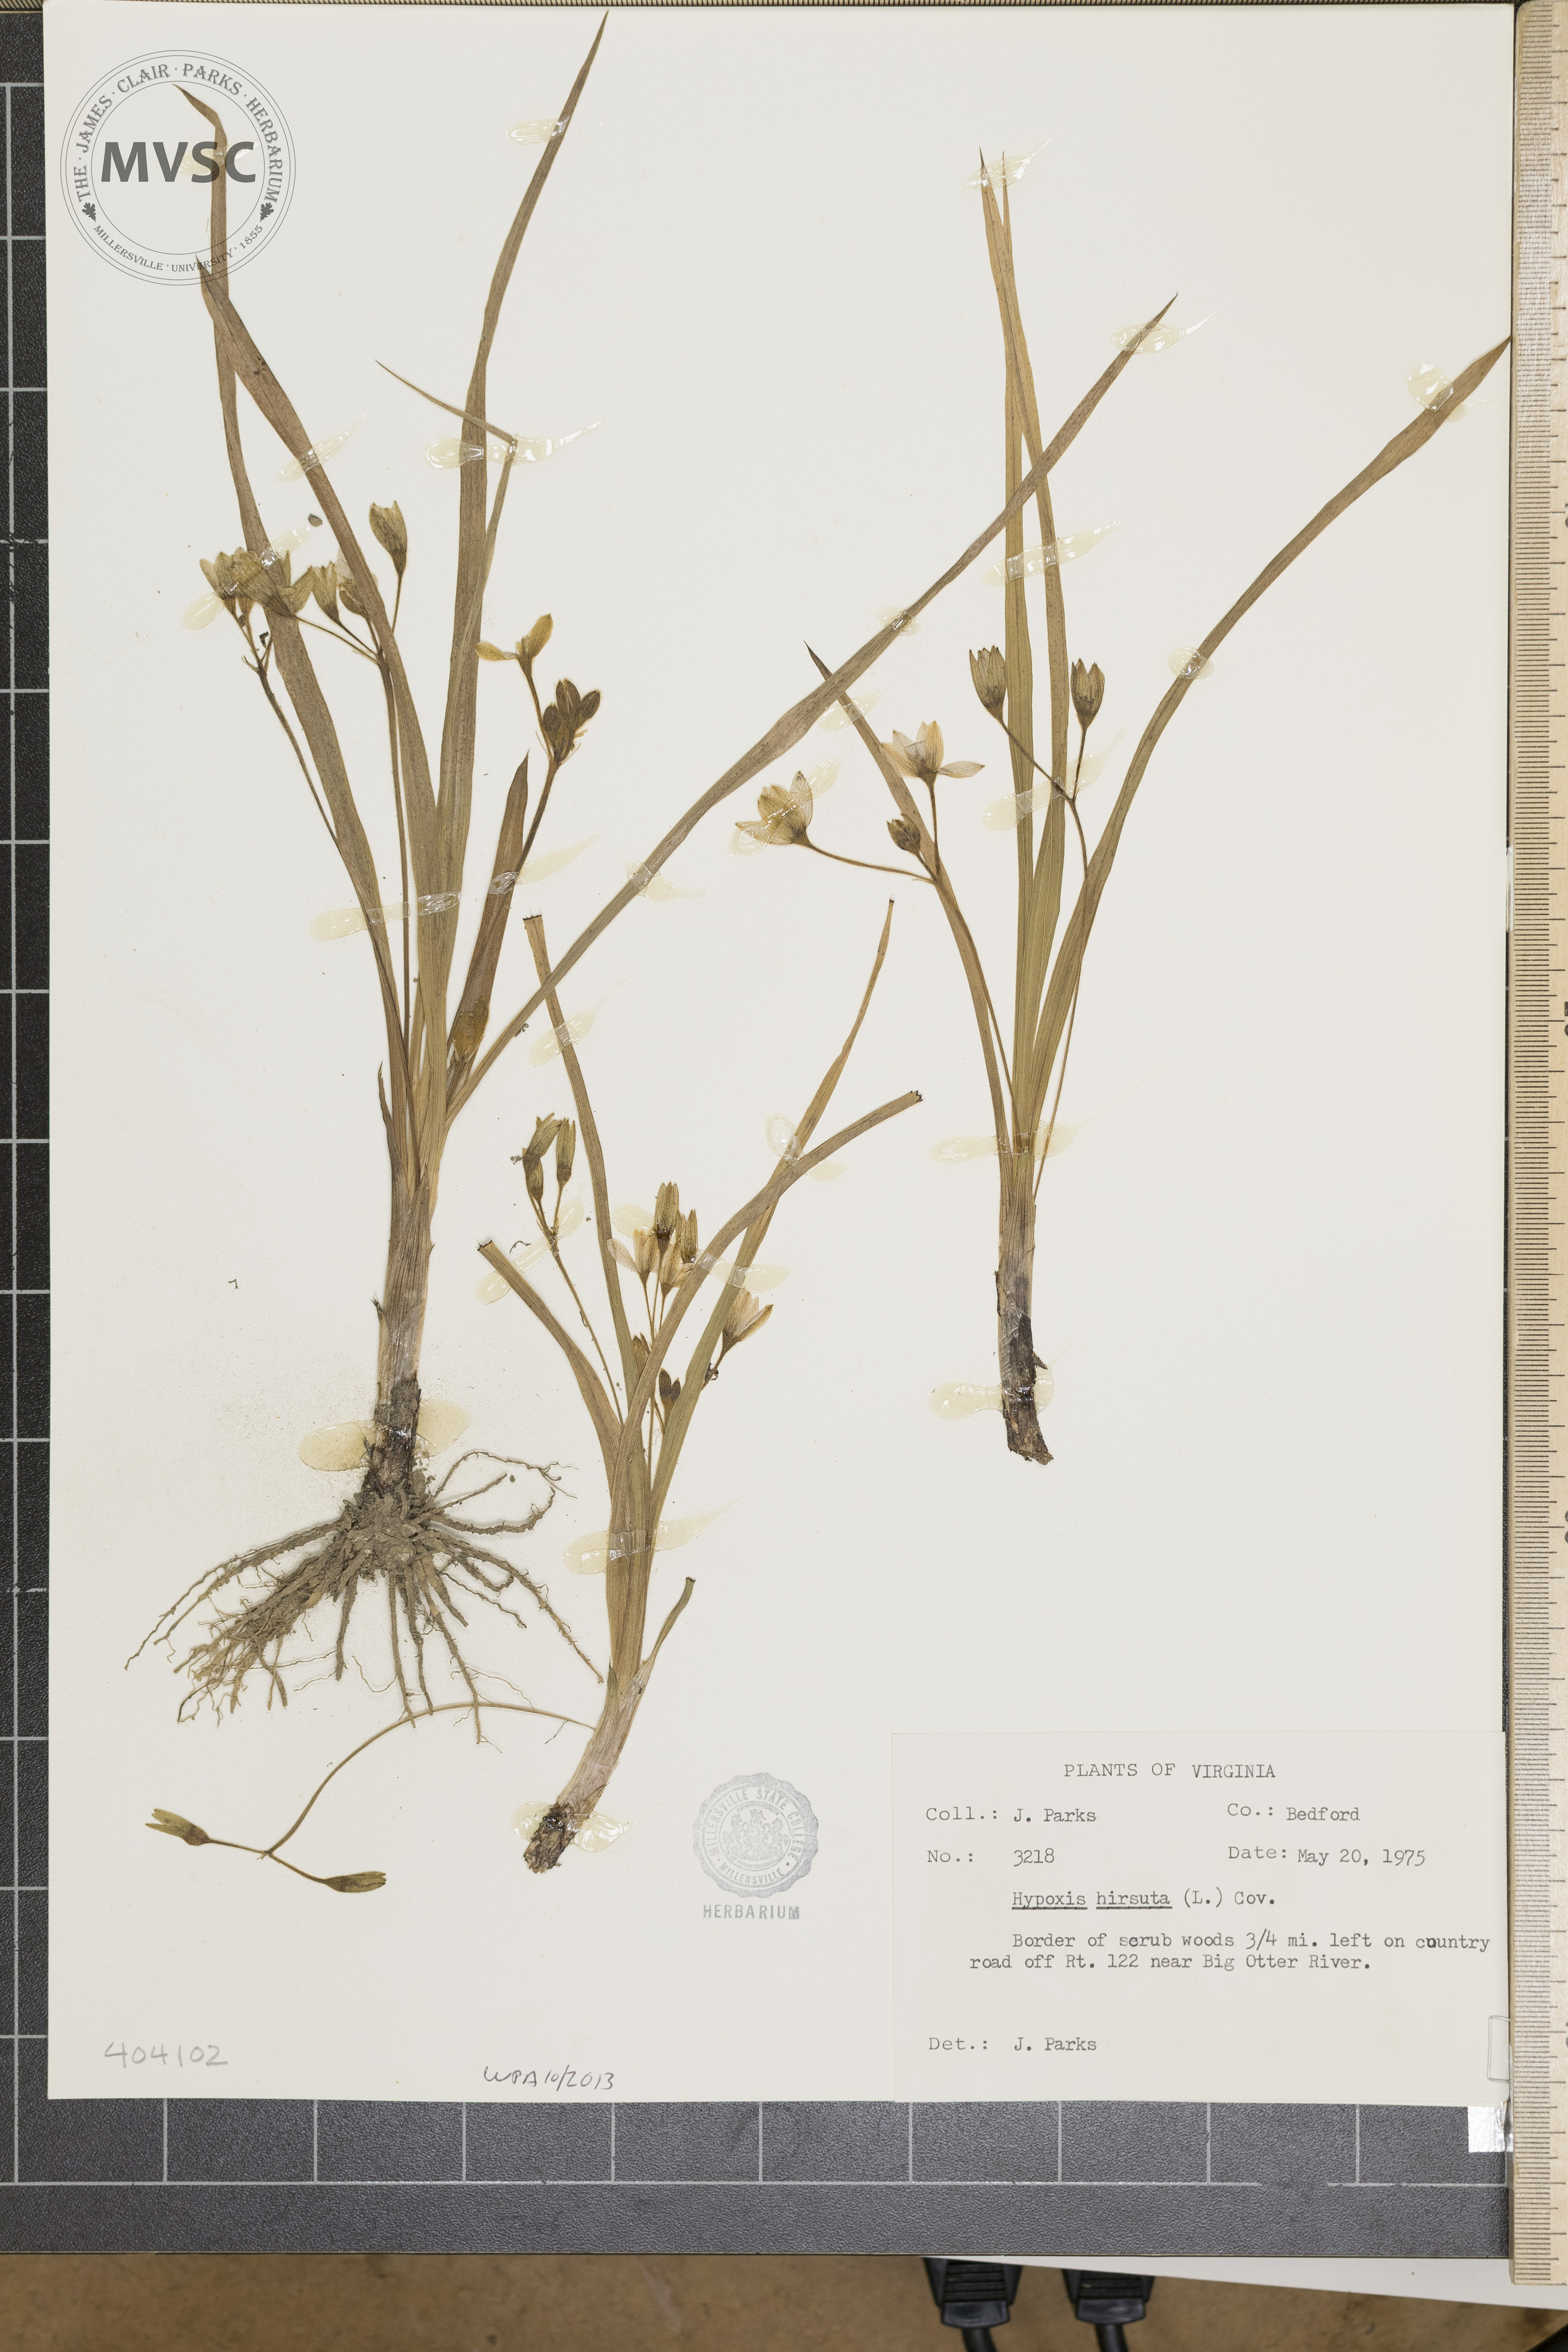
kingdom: Plantae
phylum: Tracheophyta
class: Liliopsida
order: Asparagales
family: Hypoxidaceae
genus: Hypoxis
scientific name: Hypoxis hirsuta
